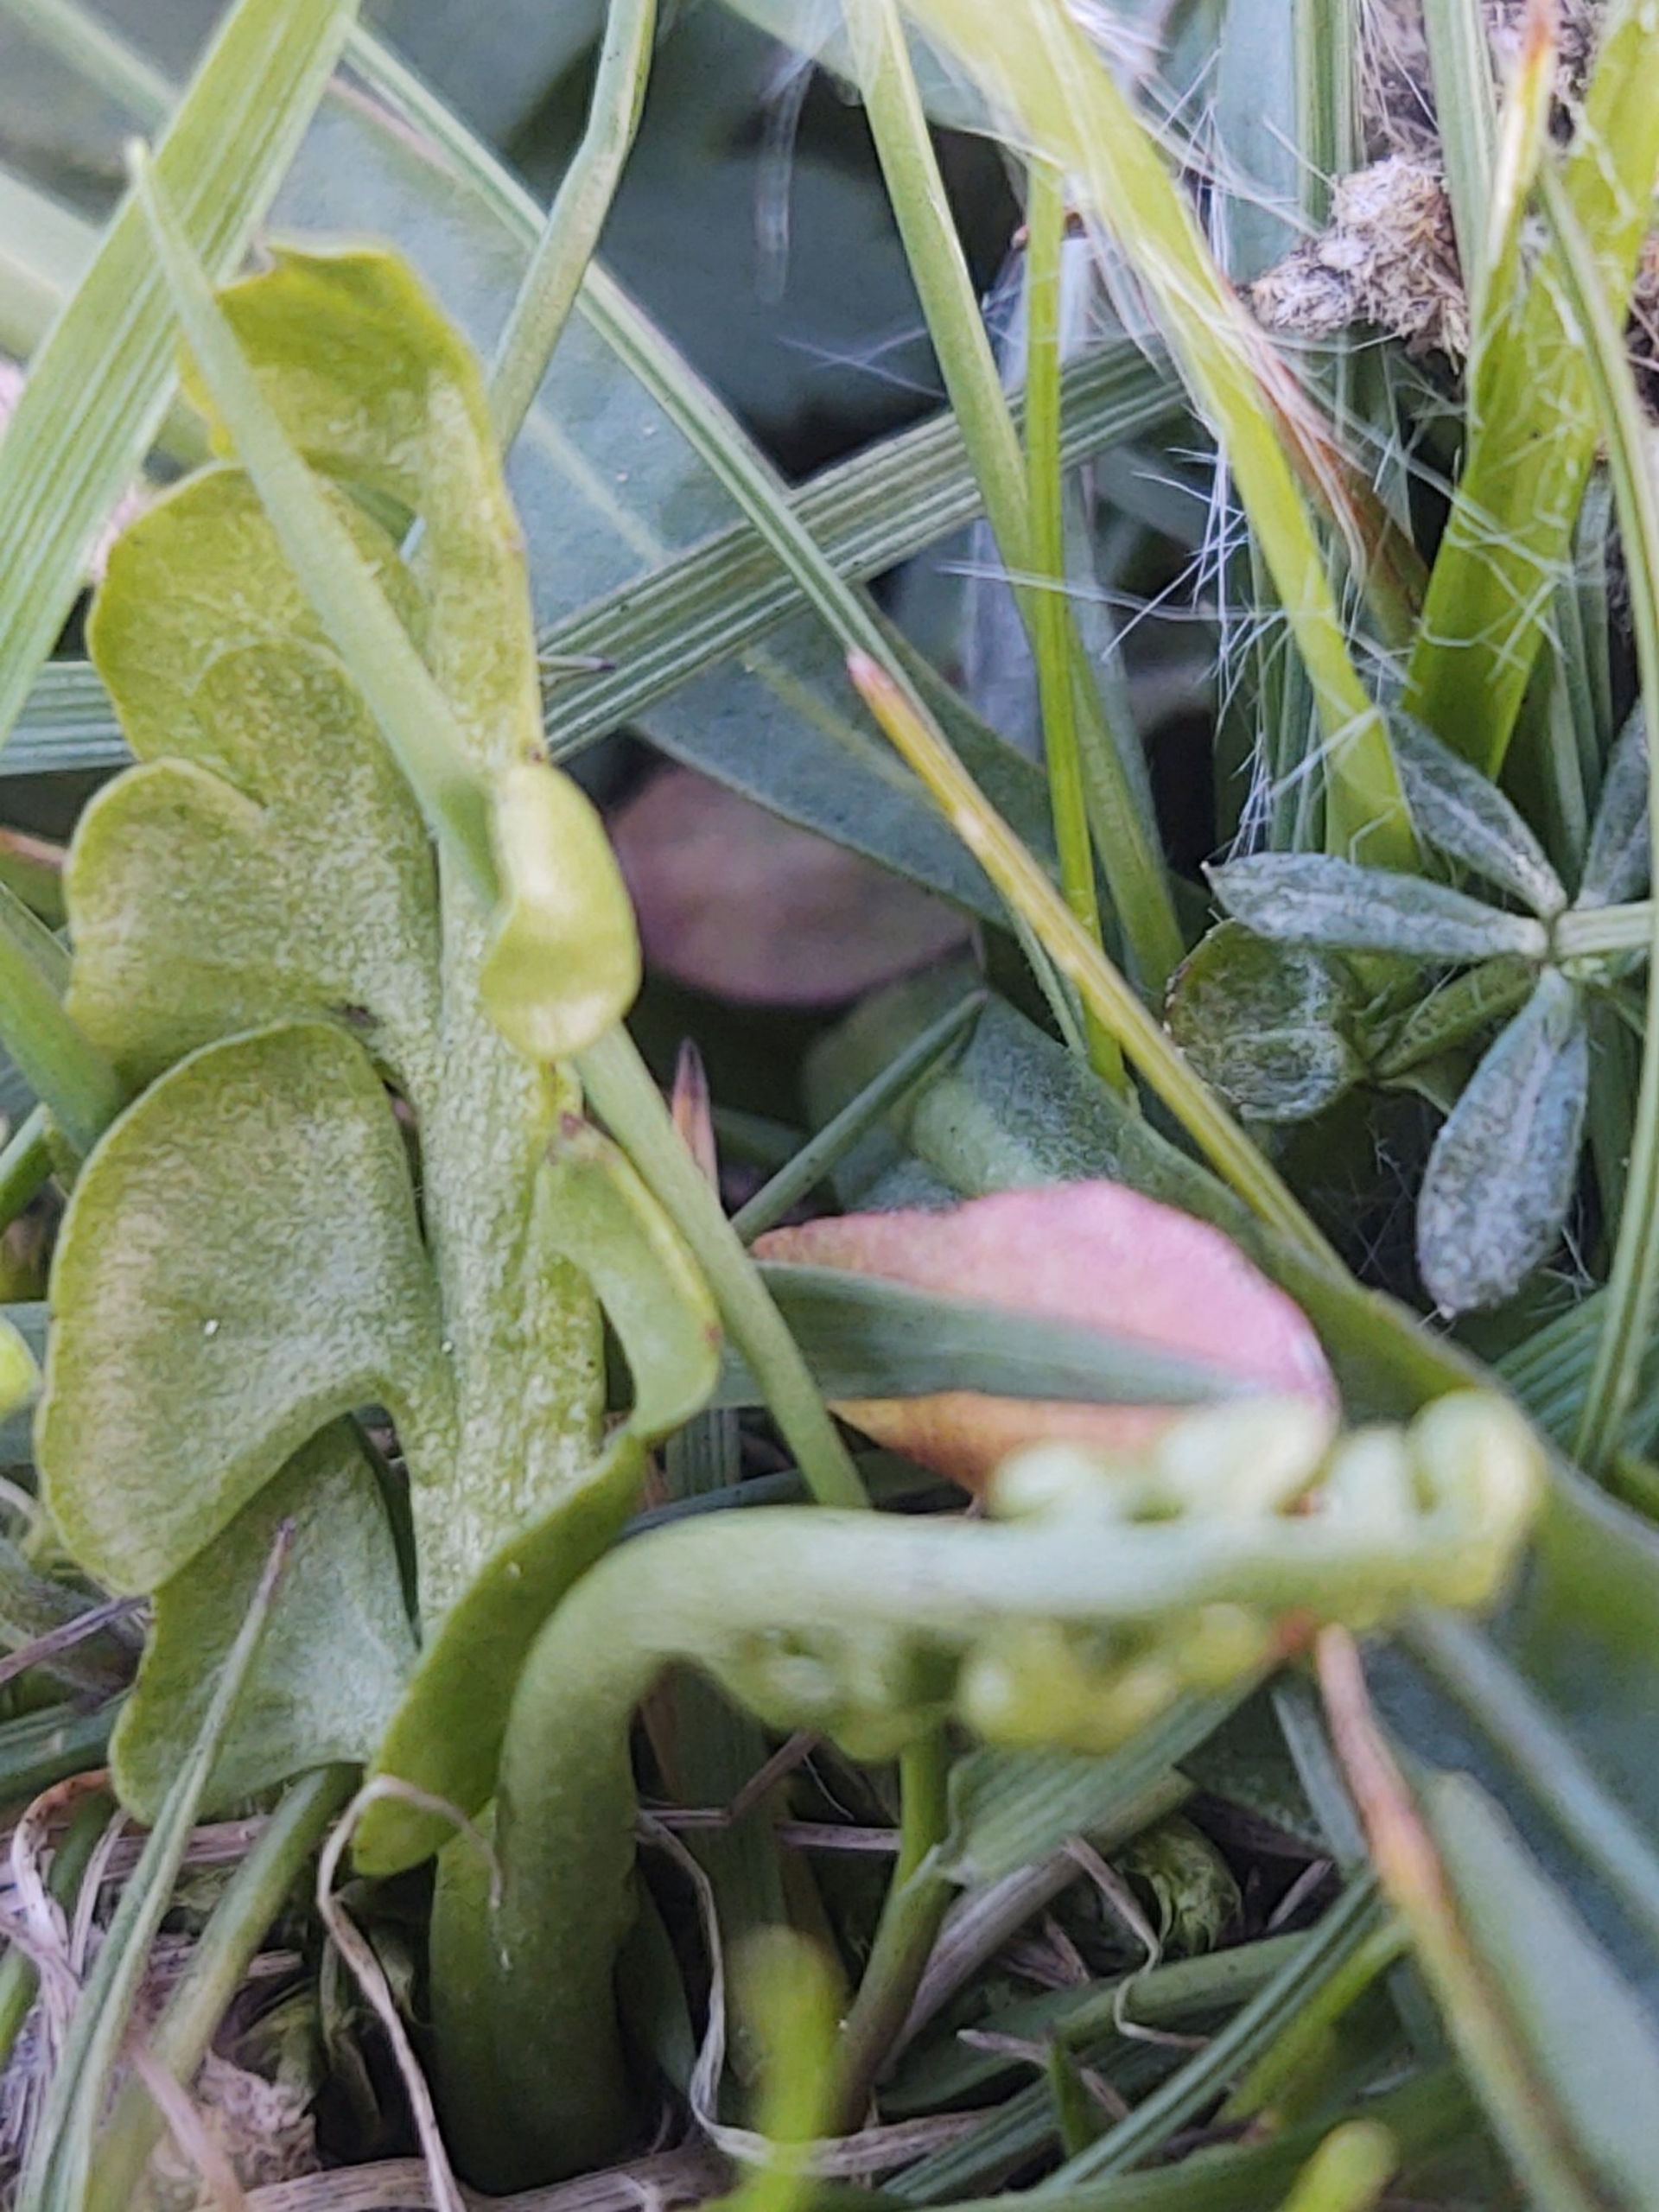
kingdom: Plantae
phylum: Tracheophyta
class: Polypodiopsida
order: Ophioglossales
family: Ophioglossaceae
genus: Botrychium
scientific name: Botrychium lunaria
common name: Almindelig månerude
